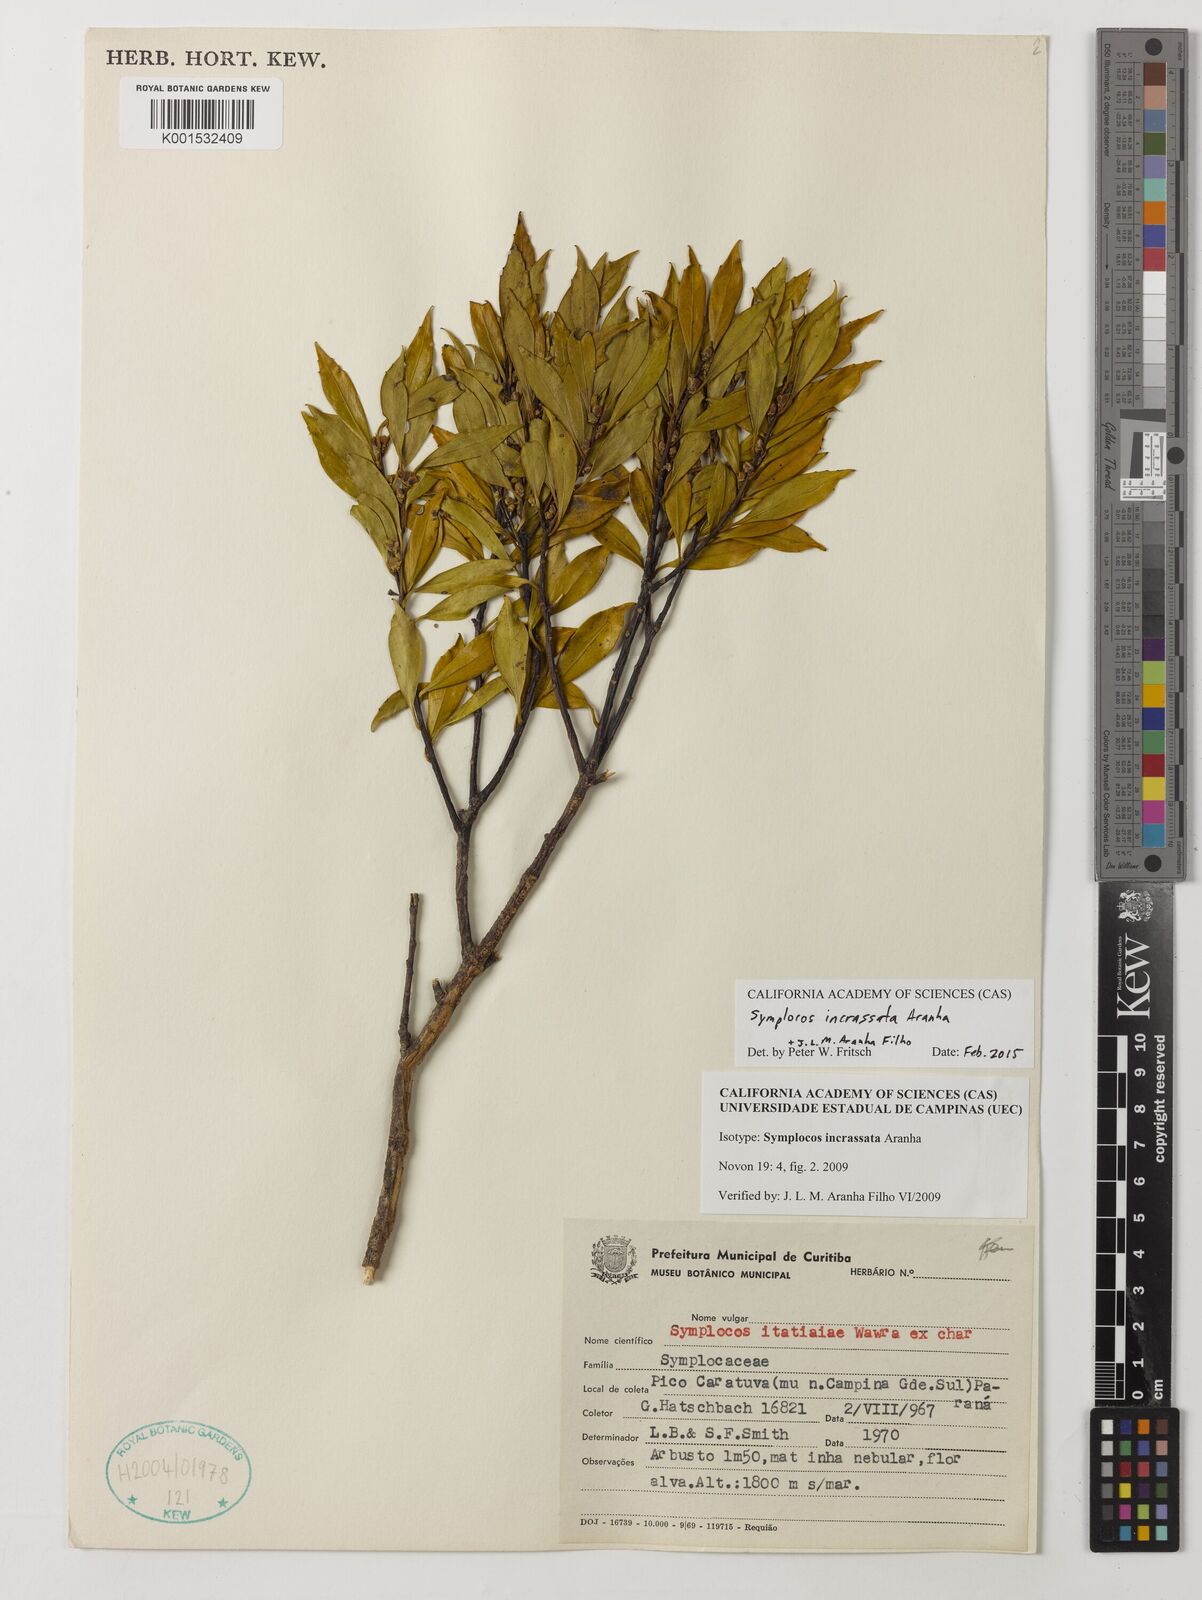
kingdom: Plantae
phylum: Tracheophyta
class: Magnoliopsida
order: Ericales
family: Symplocaceae
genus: Symplocos
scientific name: Symplocos incrassata
